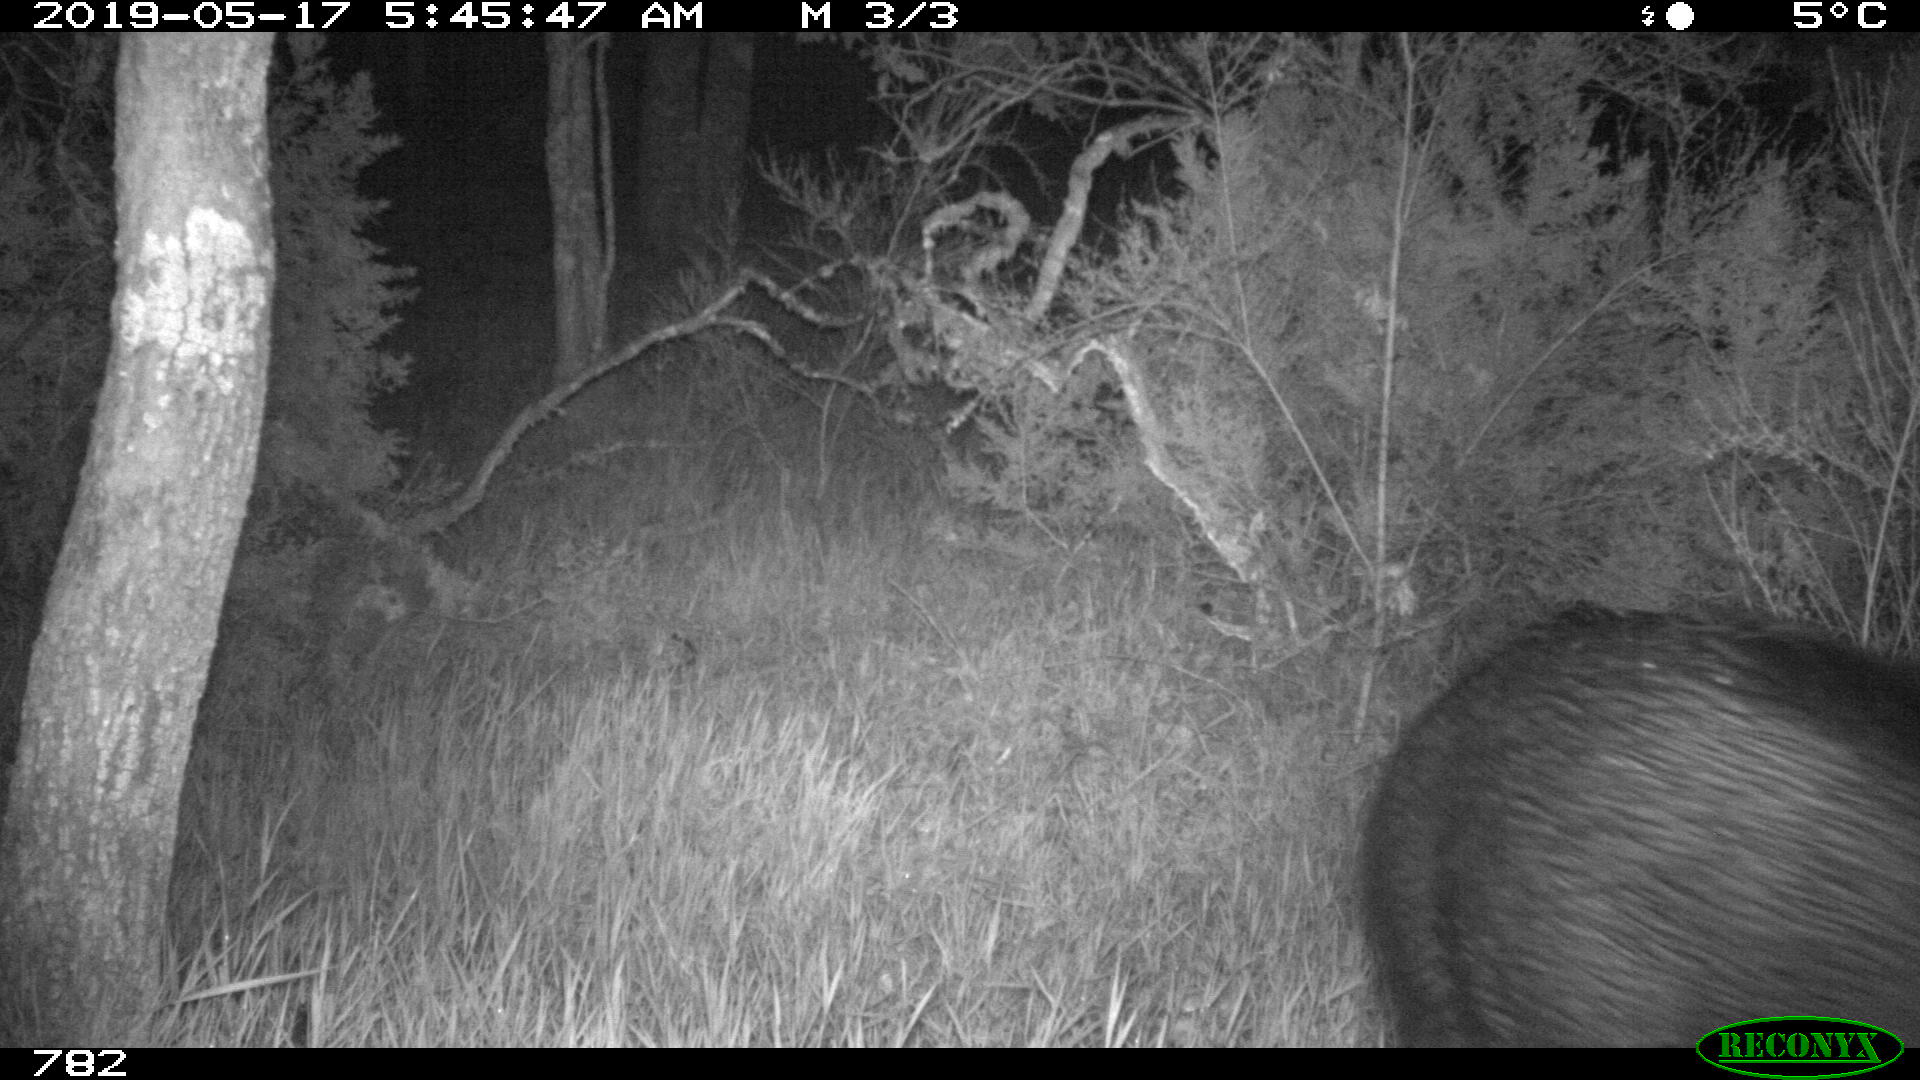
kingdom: Animalia
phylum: Chordata
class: Mammalia
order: Artiodactyla
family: Suidae
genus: Sus
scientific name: Sus scrofa
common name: Wild boar
